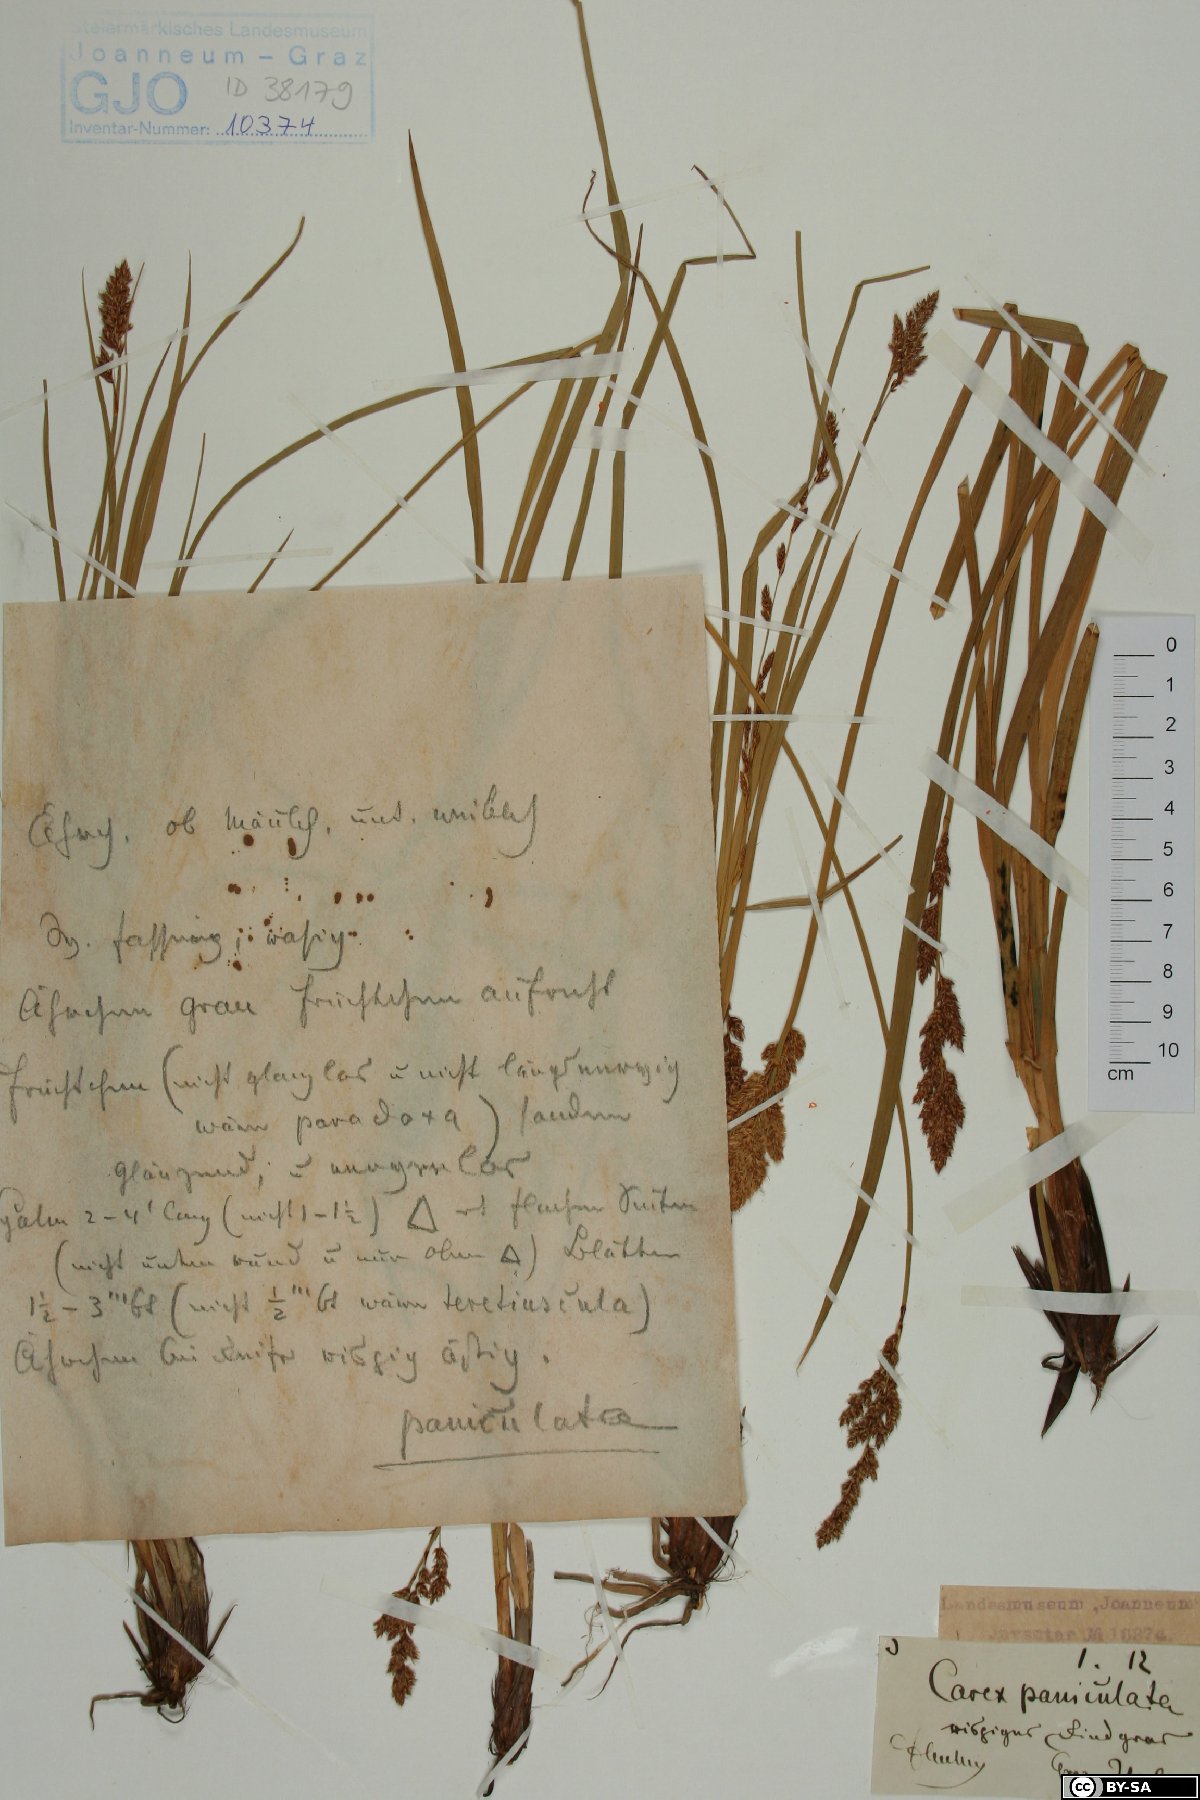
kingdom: Plantae
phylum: Tracheophyta
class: Liliopsida
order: Poales
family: Cyperaceae
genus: Carex
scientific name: Carex paniculata
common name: Greater tussock-sedge
